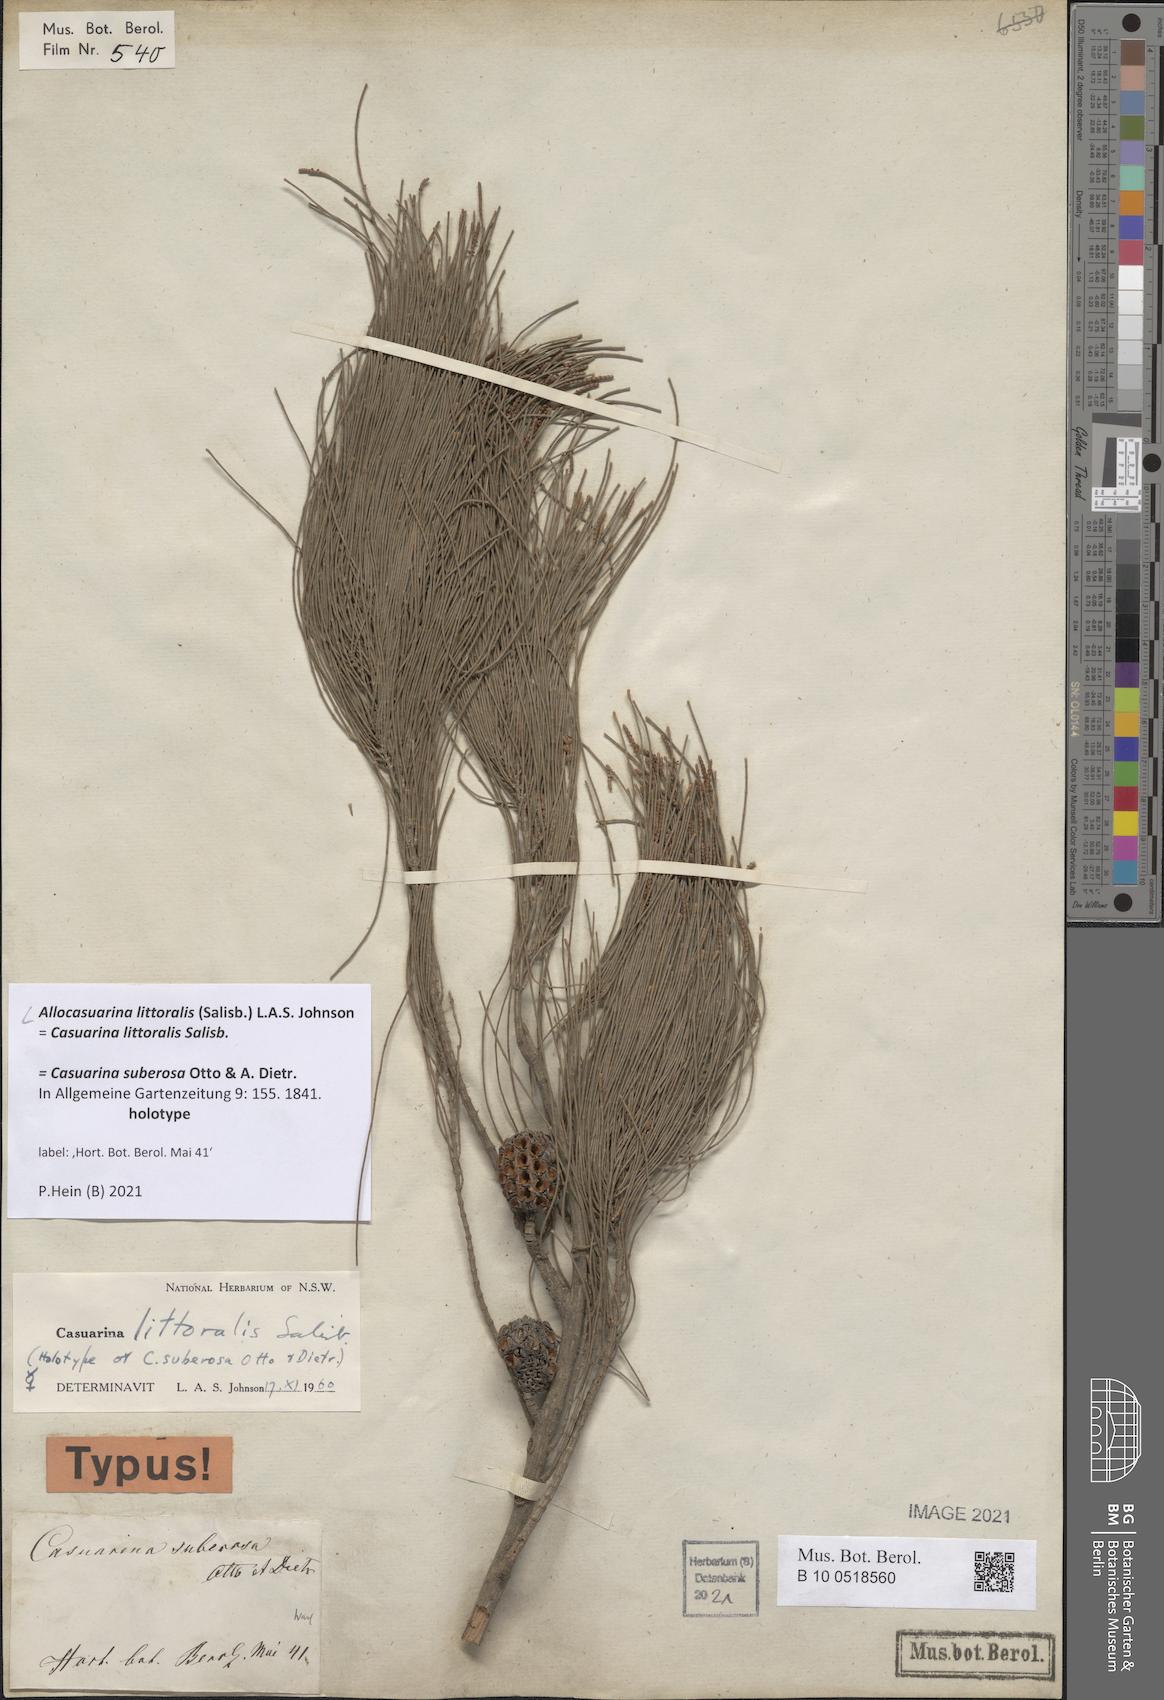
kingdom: Plantae
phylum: Tracheophyta
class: Magnoliopsida
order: Fagales
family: Casuarinaceae
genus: Allocasuarina
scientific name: Allocasuarina littoralis
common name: Black she-oak
